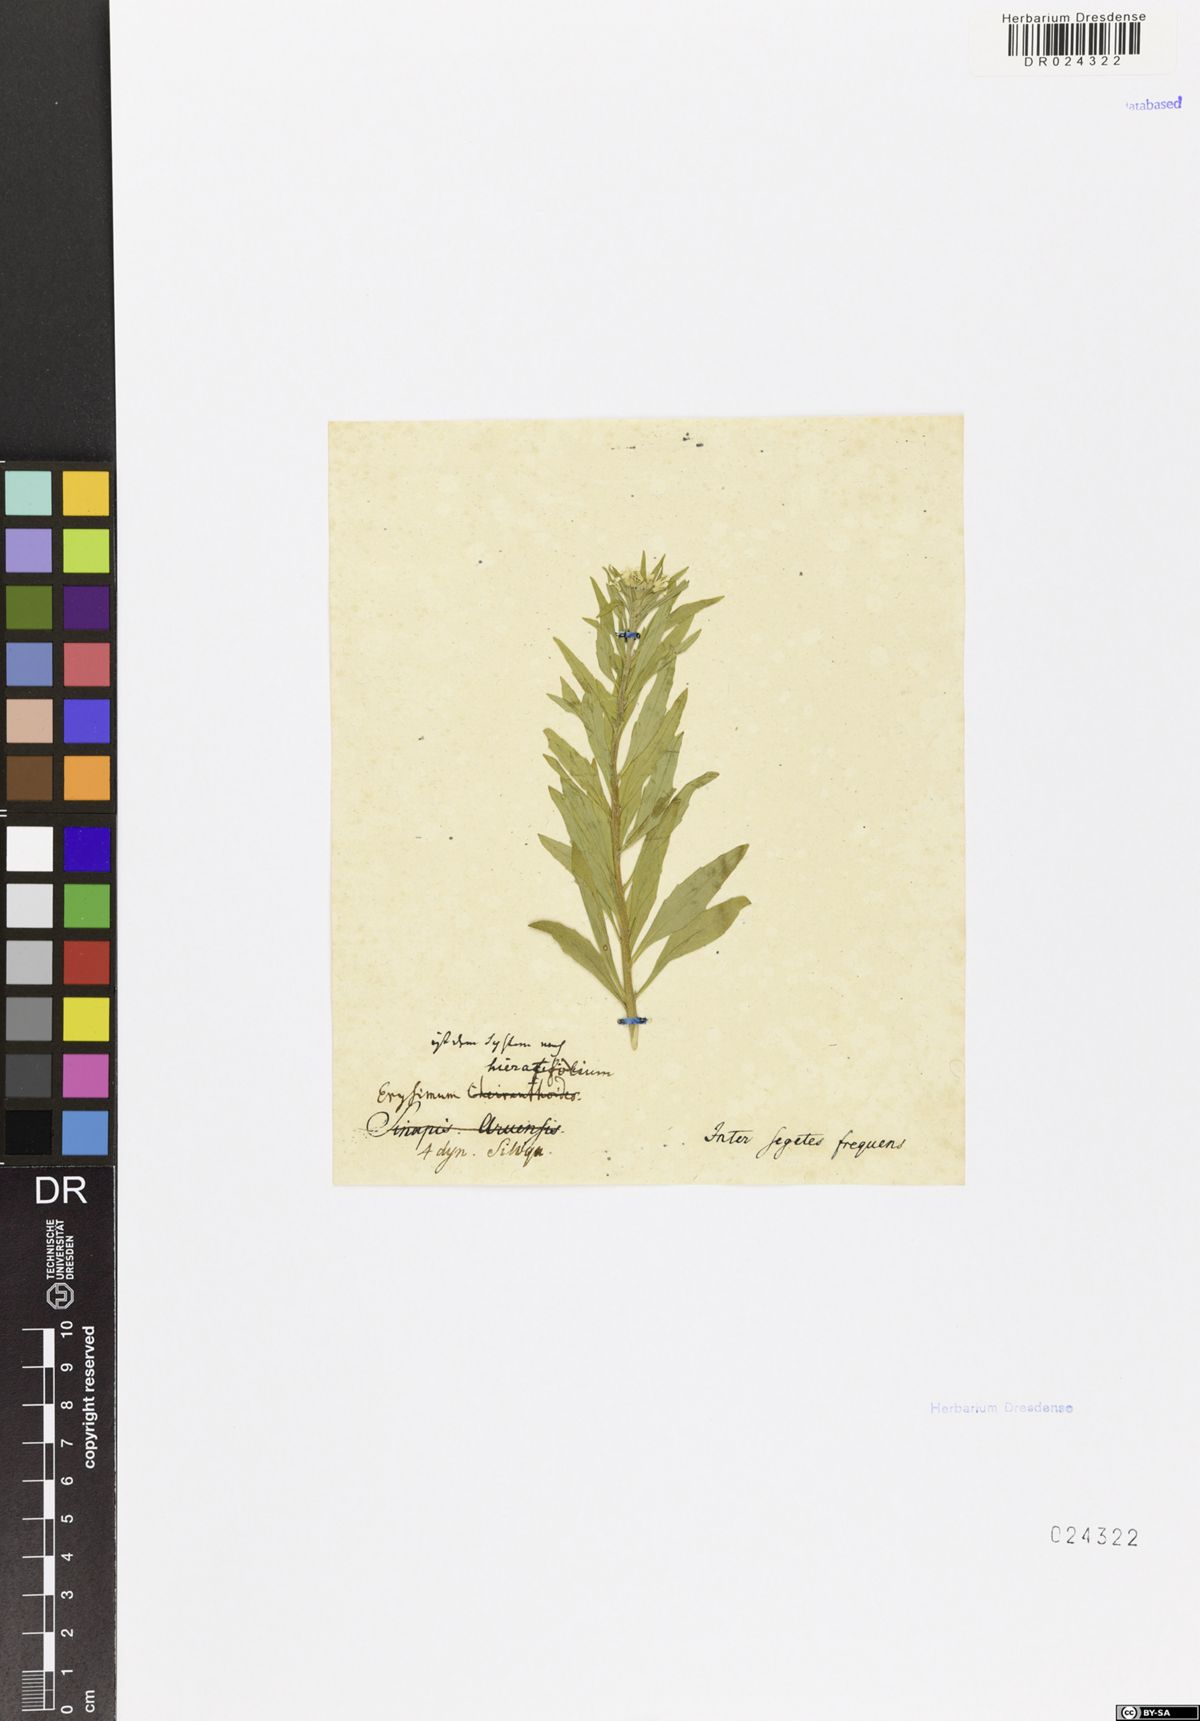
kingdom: Plantae
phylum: Tracheophyta
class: Magnoliopsida
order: Brassicales
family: Brassicaceae
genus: Erysimum
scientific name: Erysimum virgatum
